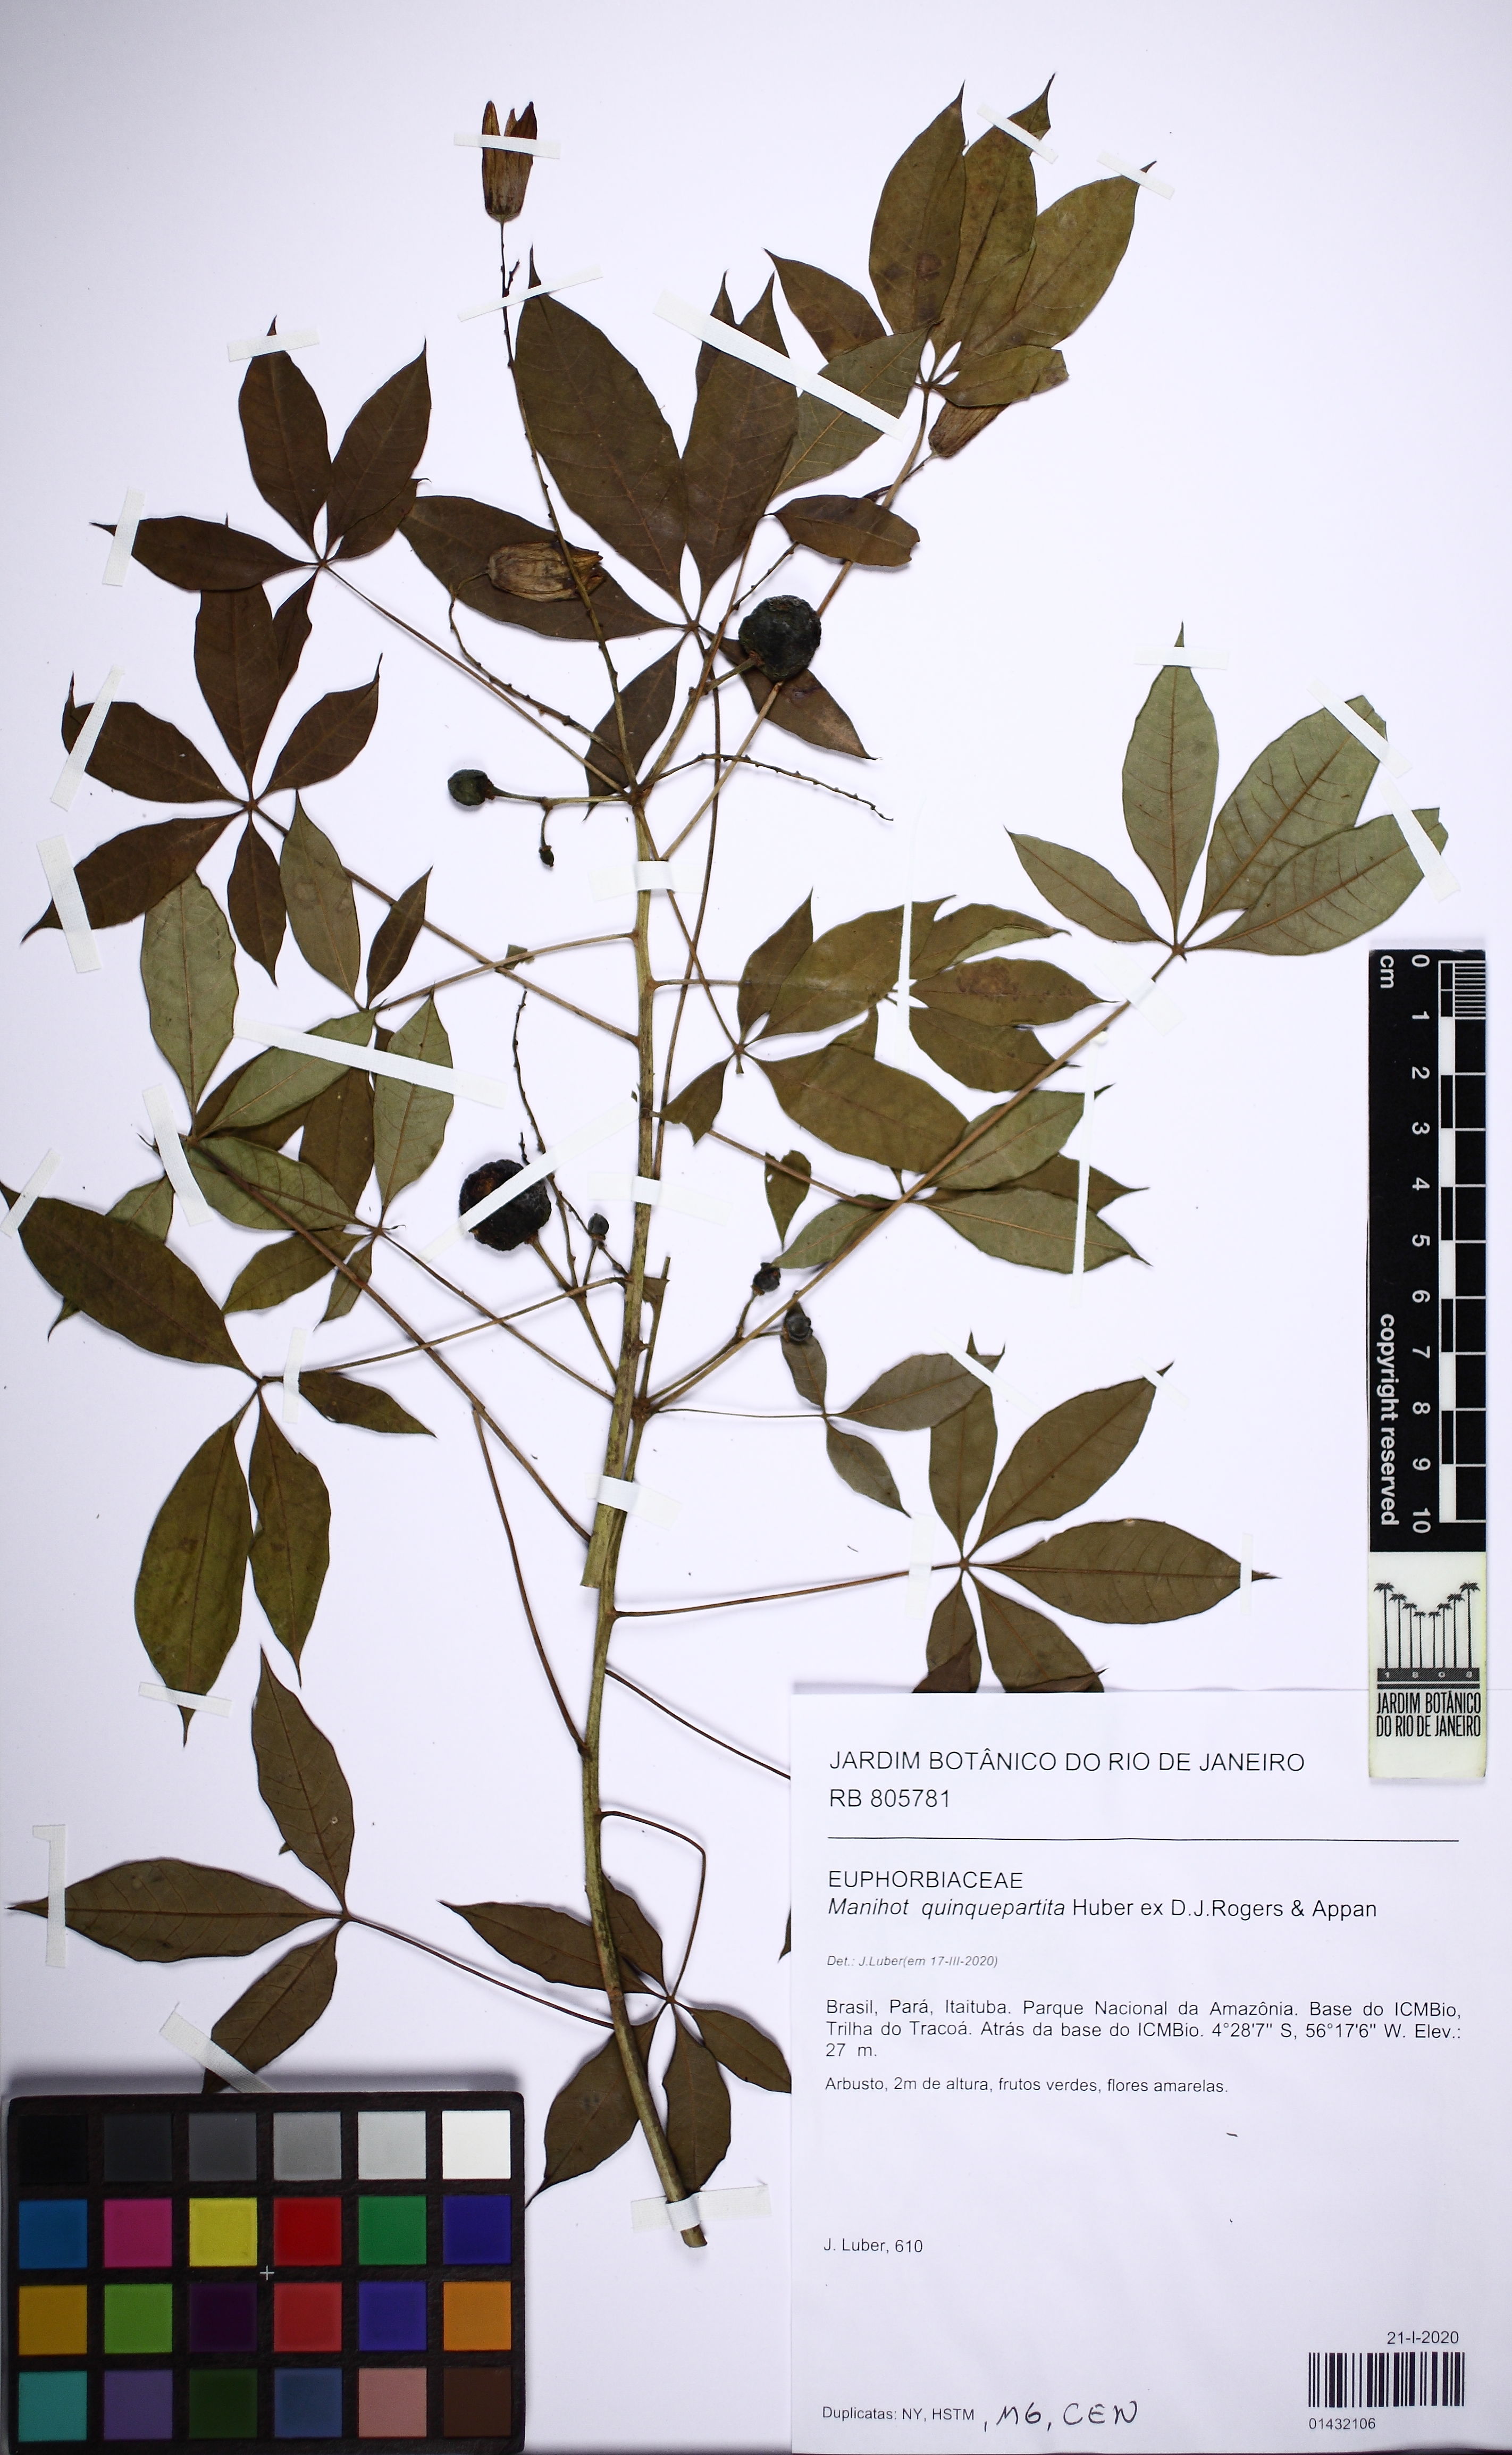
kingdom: Plantae
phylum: Tracheophyta
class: Magnoliopsida
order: Malpighiales
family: Euphorbiaceae
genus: Manihot
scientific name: Manihot quinquepartita
